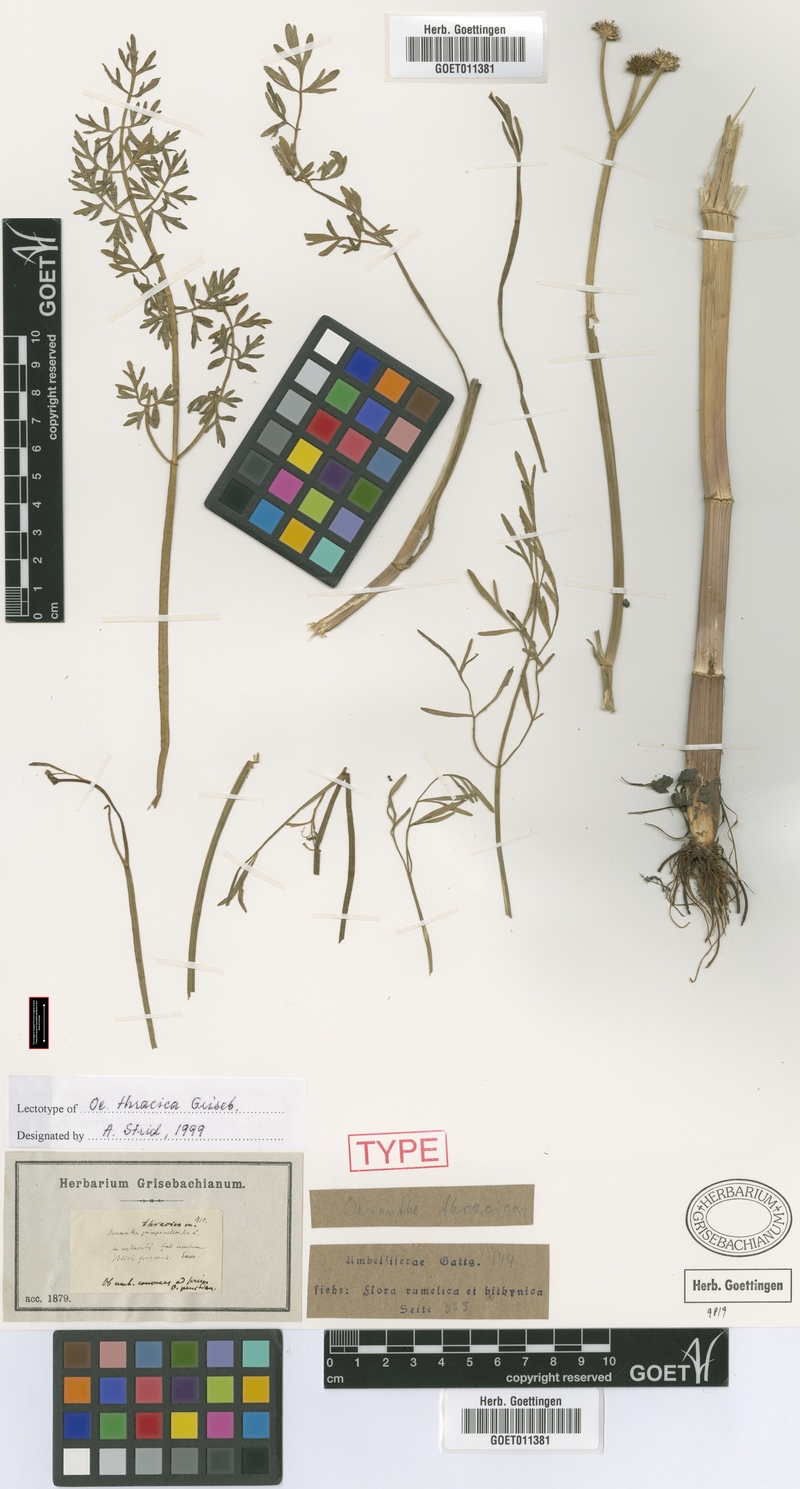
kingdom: Plantae
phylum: Tracheophyta
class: Magnoliopsida
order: Apiales
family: Apiaceae
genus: Oenanthe
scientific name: Oenanthe silaifolia
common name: Narrow-leaved water-dropwort
